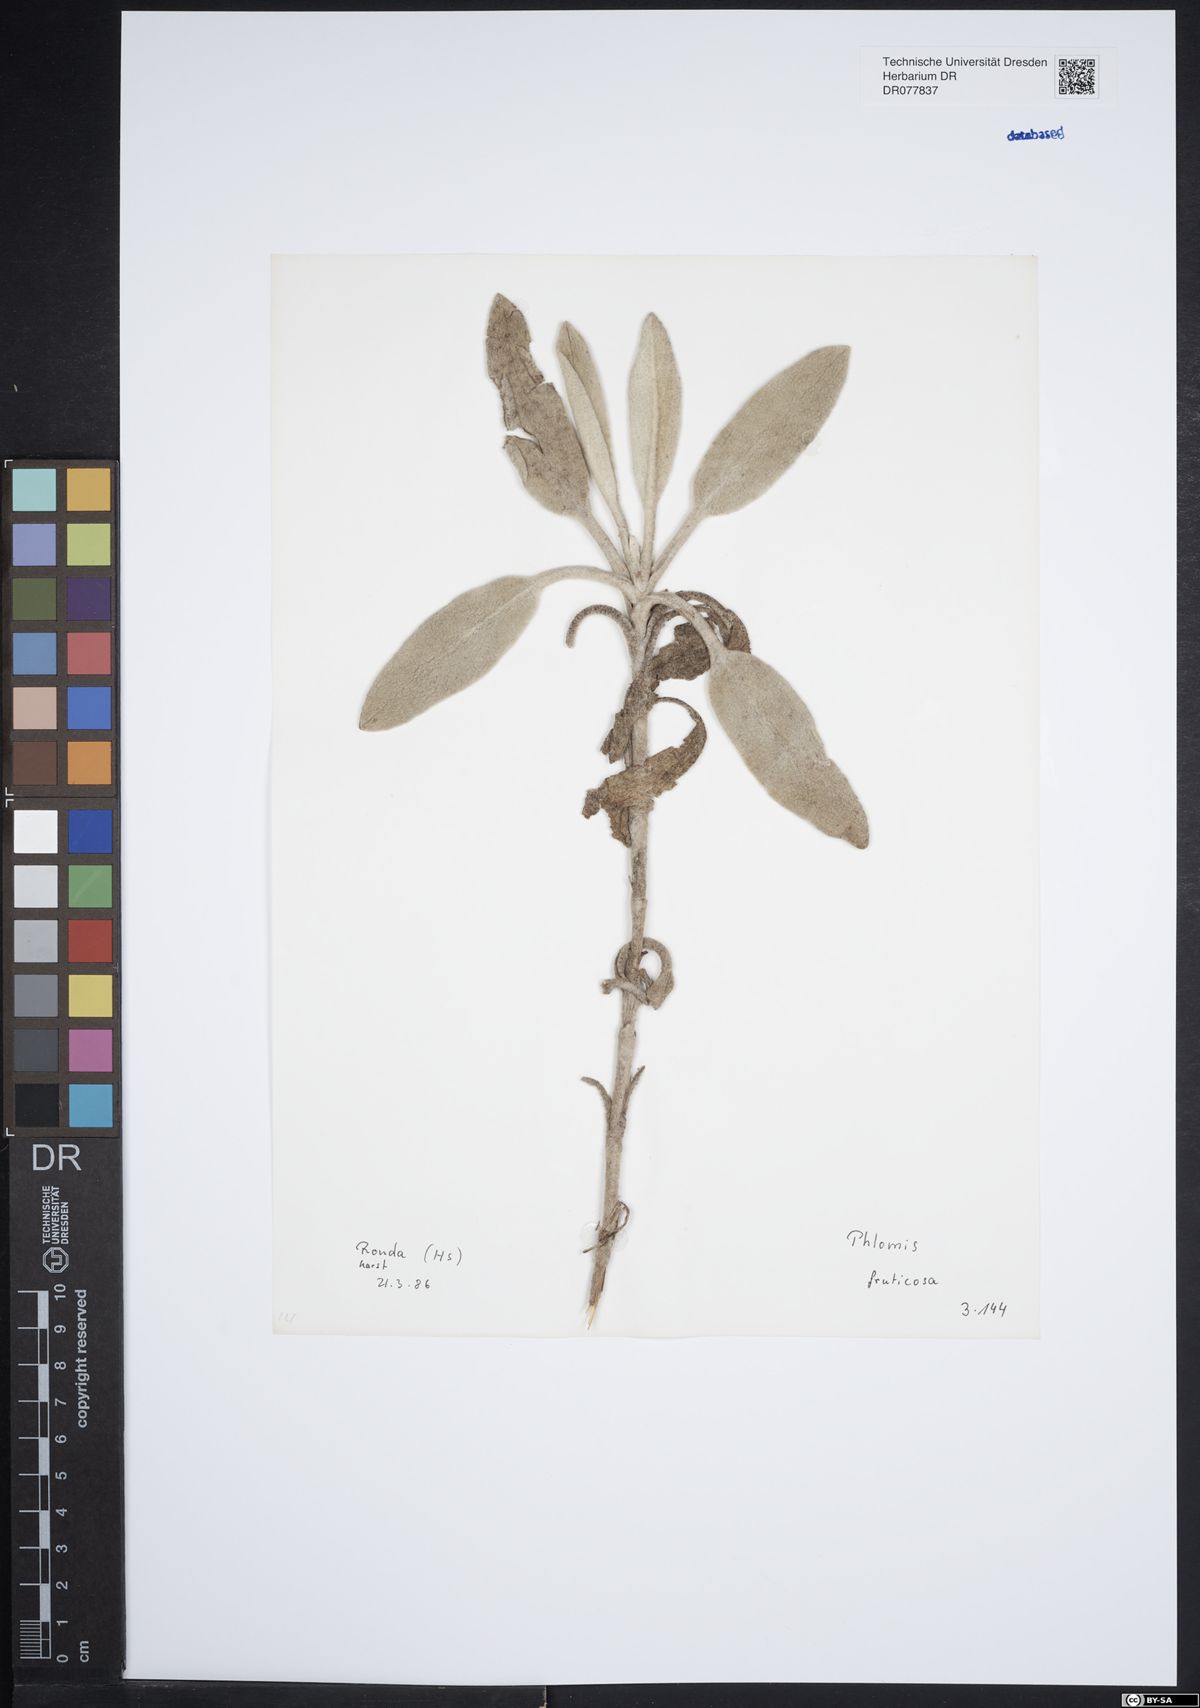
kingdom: Plantae
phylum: Tracheophyta
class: Magnoliopsida
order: Lamiales
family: Lamiaceae
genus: Phlomis
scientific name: Phlomis fruticosa
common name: Jerusalem sage
